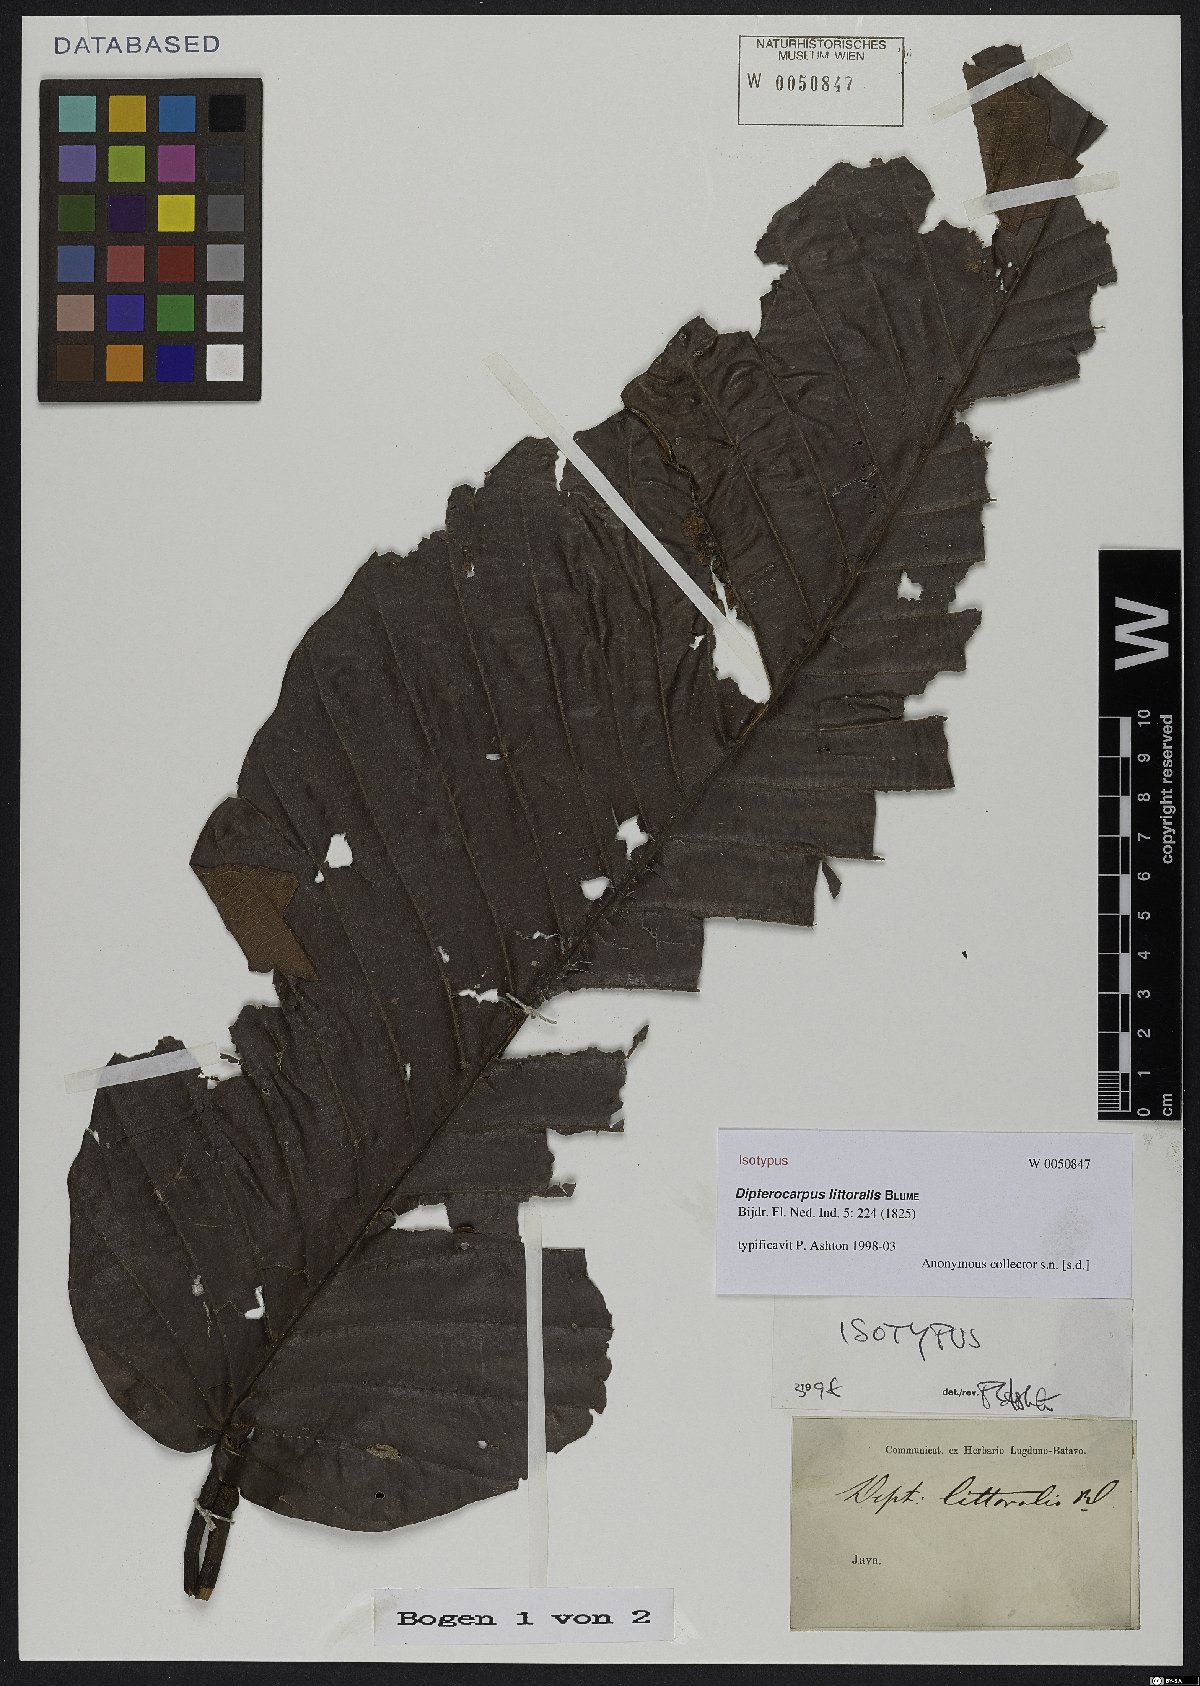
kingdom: Plantae
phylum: Tracheophyta
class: Magnoliopsida
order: Malvales
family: Dipterocarpaceae
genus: Dipterocarpus
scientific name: Dipterocarpus littoralis
